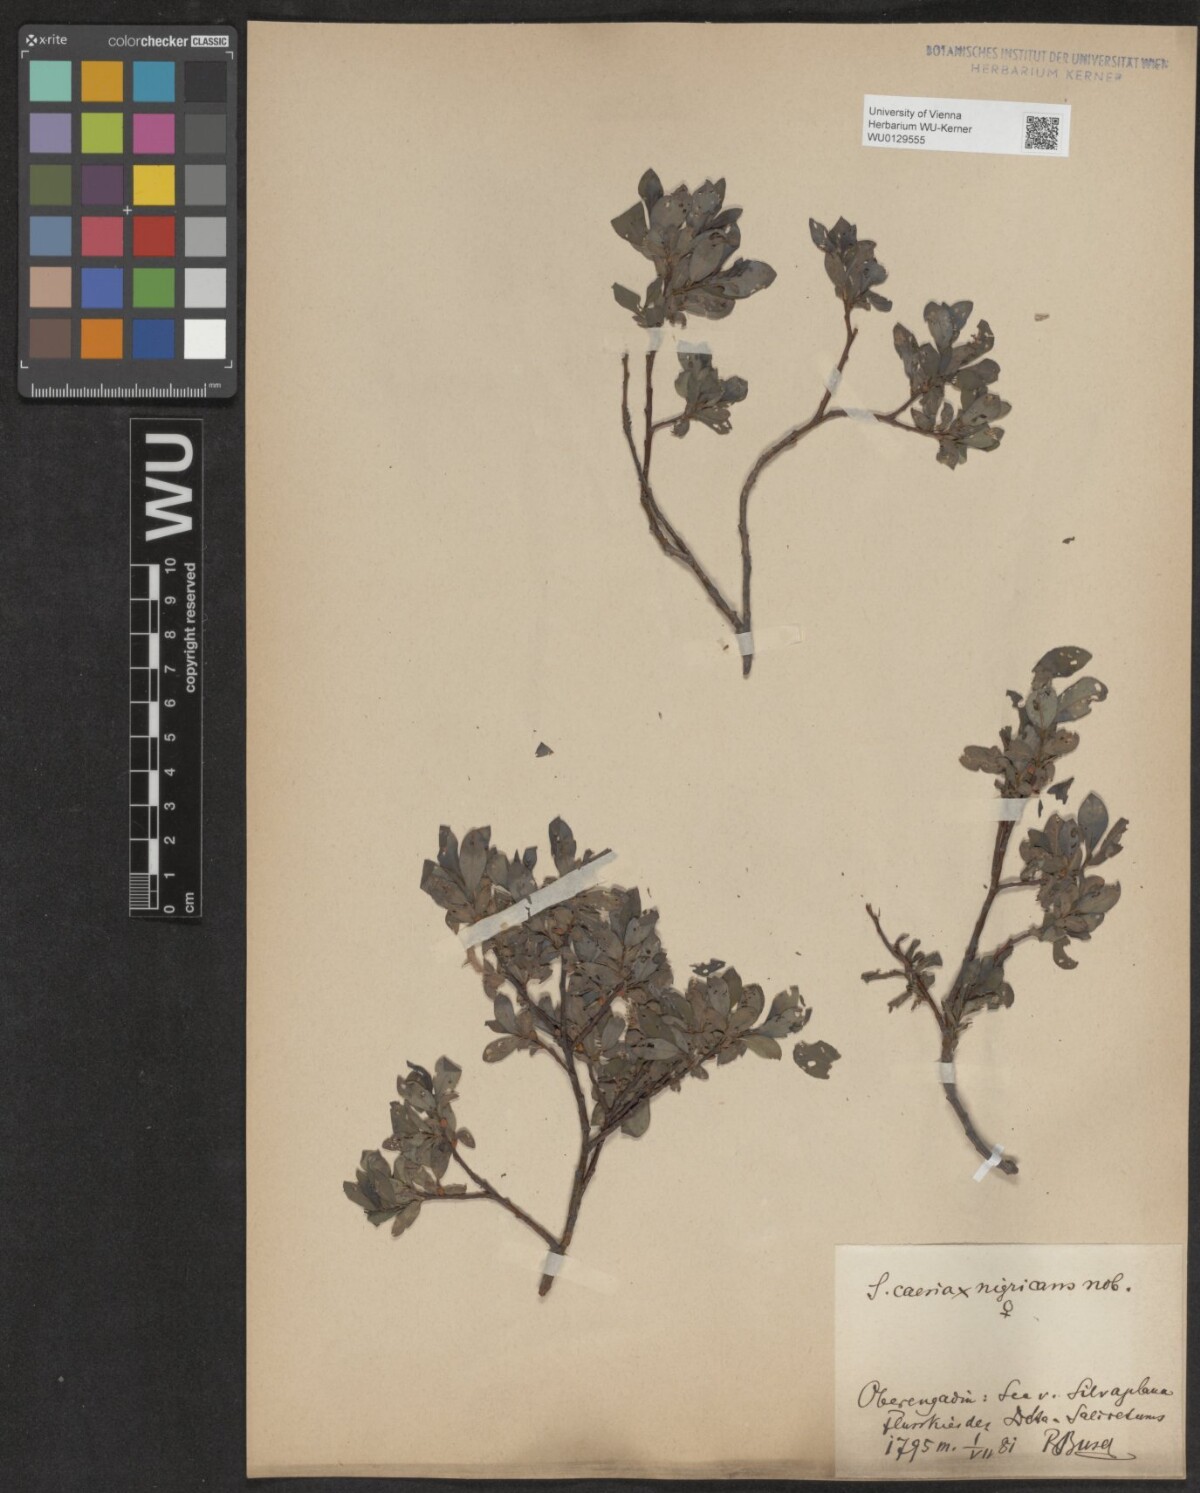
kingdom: Plantae
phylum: Tracheophyta
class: Magnoliopsida
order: Malpighiales
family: Salicaceae
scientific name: Salicaceae
